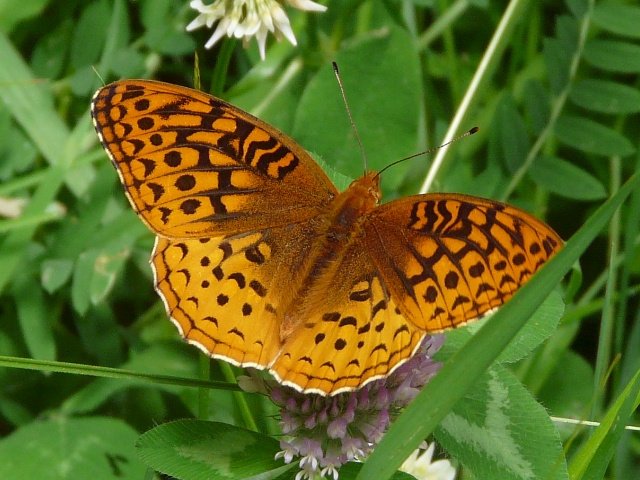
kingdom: Animalia
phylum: Arthropoda
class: Insecta
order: Lepidoptera
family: Nymphalidae
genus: Speyeria
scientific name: Speyeria cybele
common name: Great Spangled Fritillary
